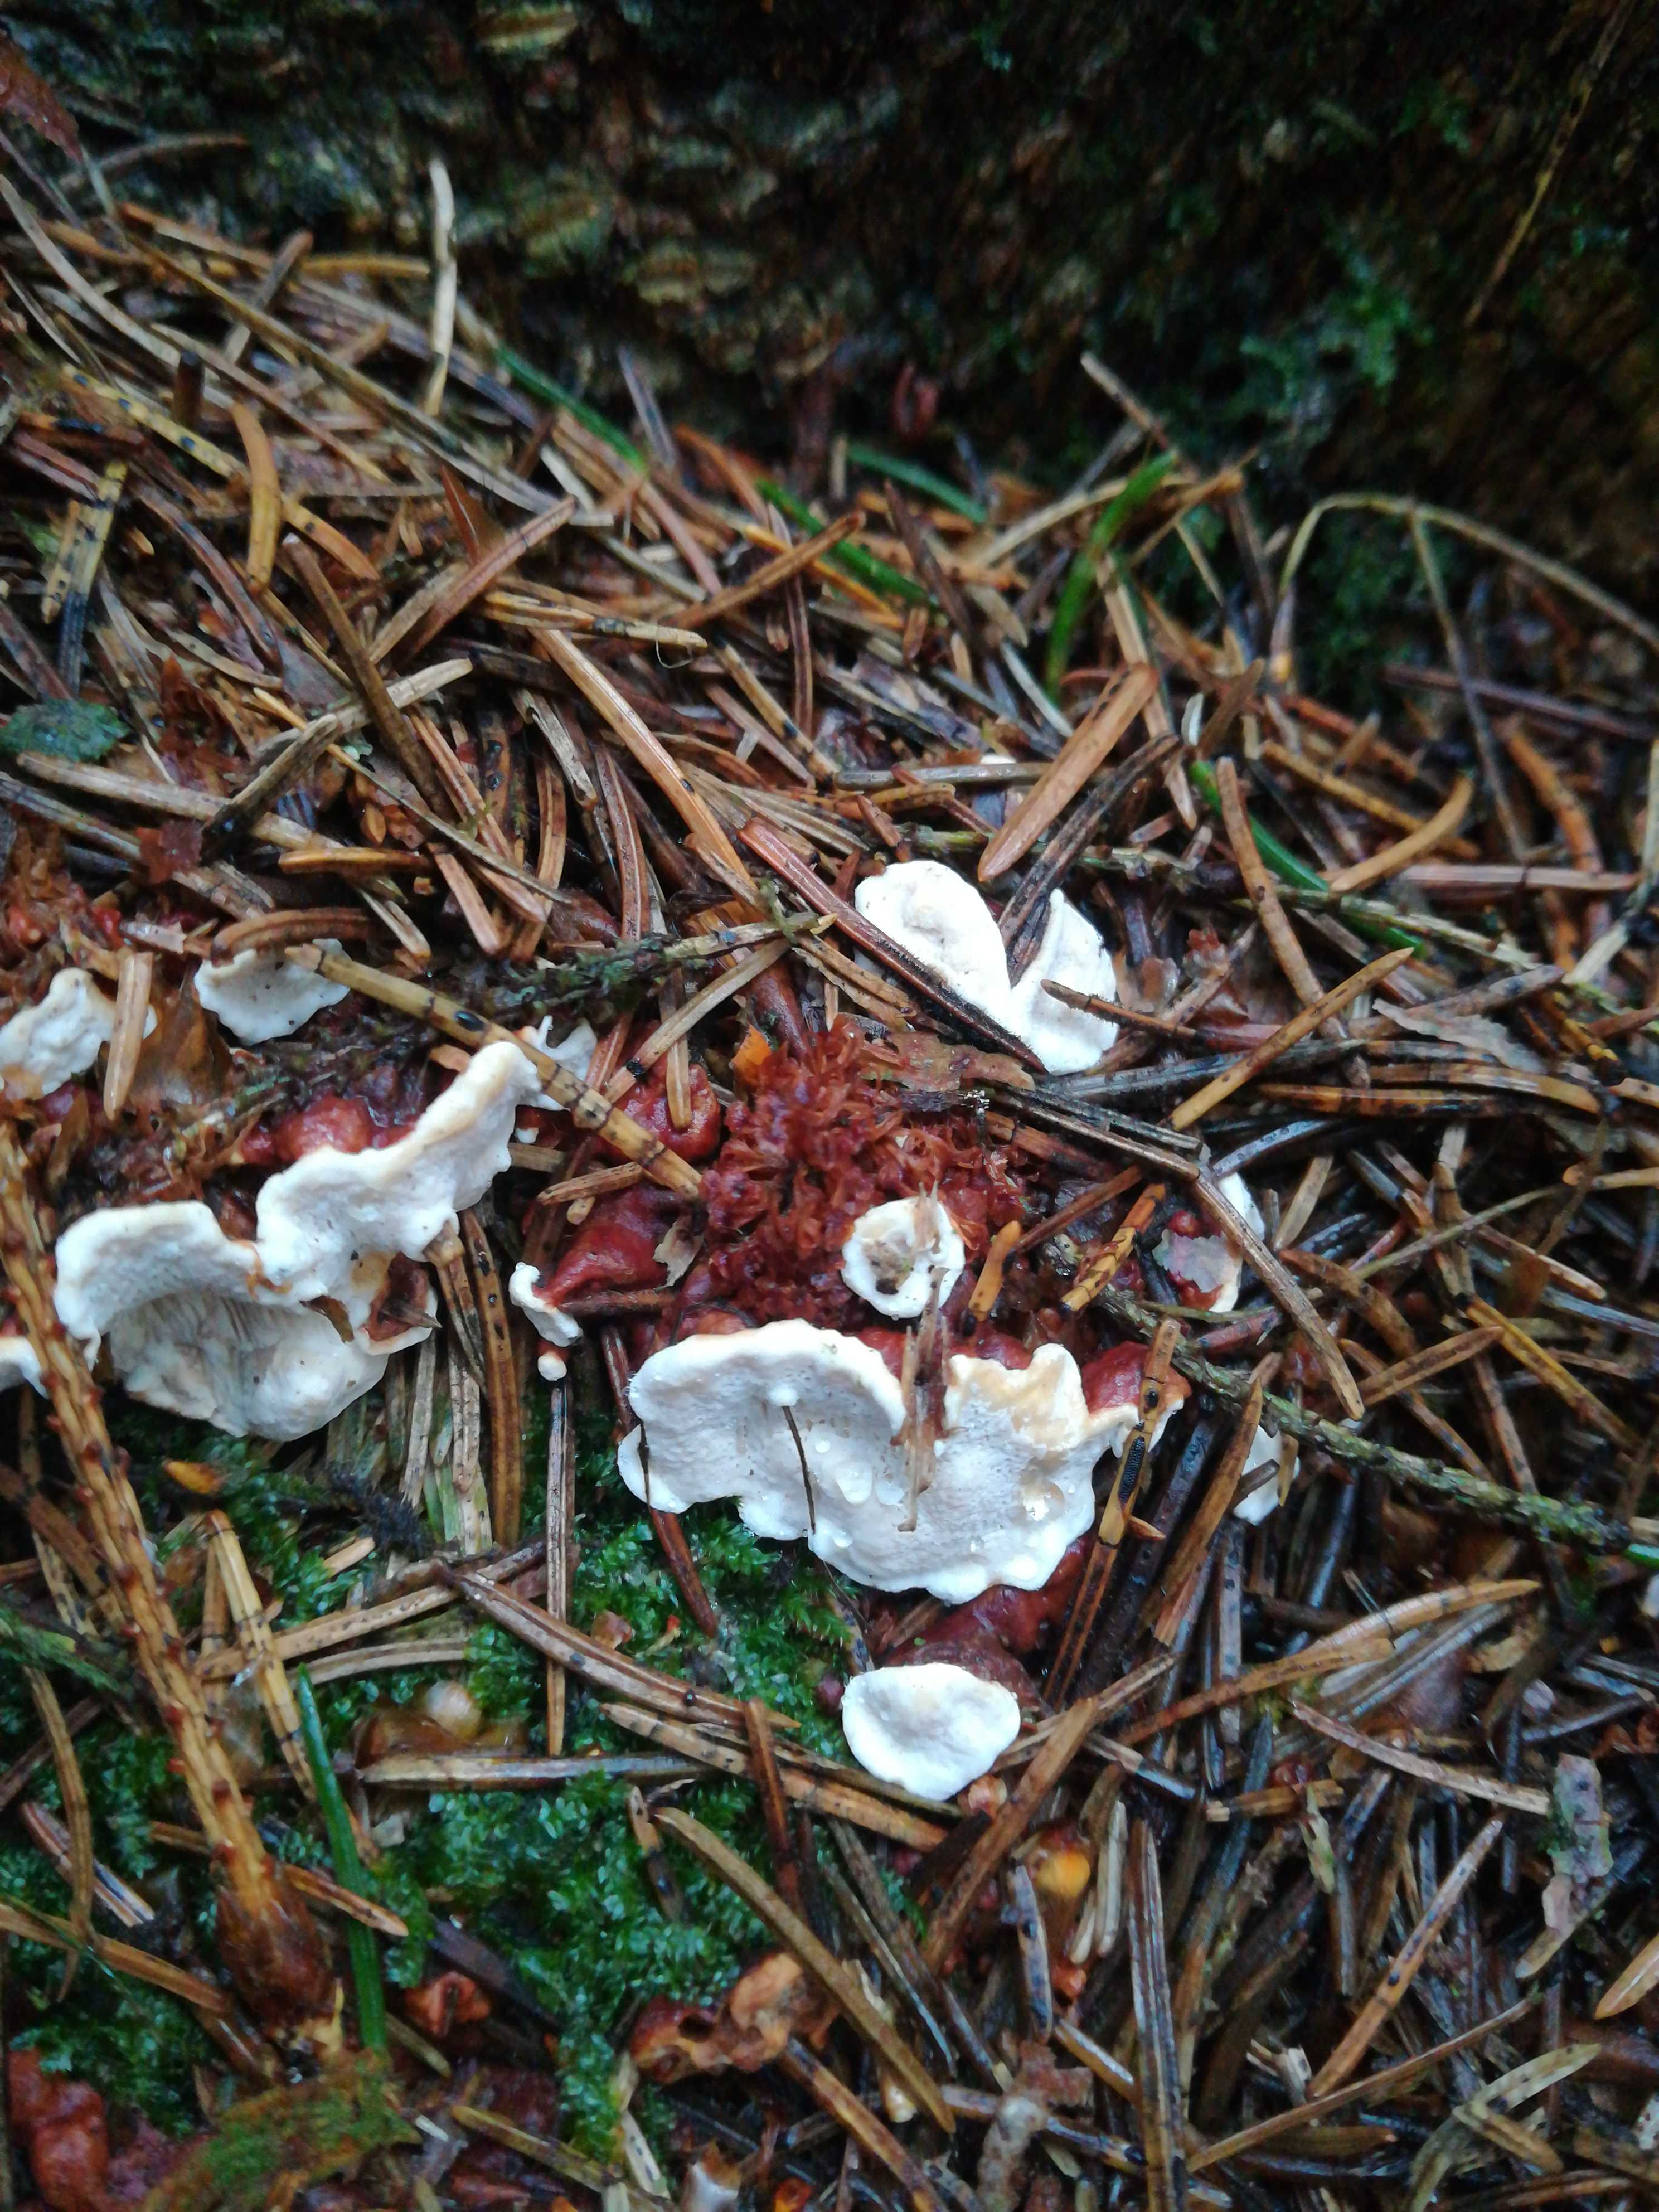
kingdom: Fungi
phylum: Basidiomycota
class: Agaricomycetes
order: Russulales
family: Bondarzewiaceae
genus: Heterobasidion
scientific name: Heterobasidion annosum
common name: almindelig rodfordærver
